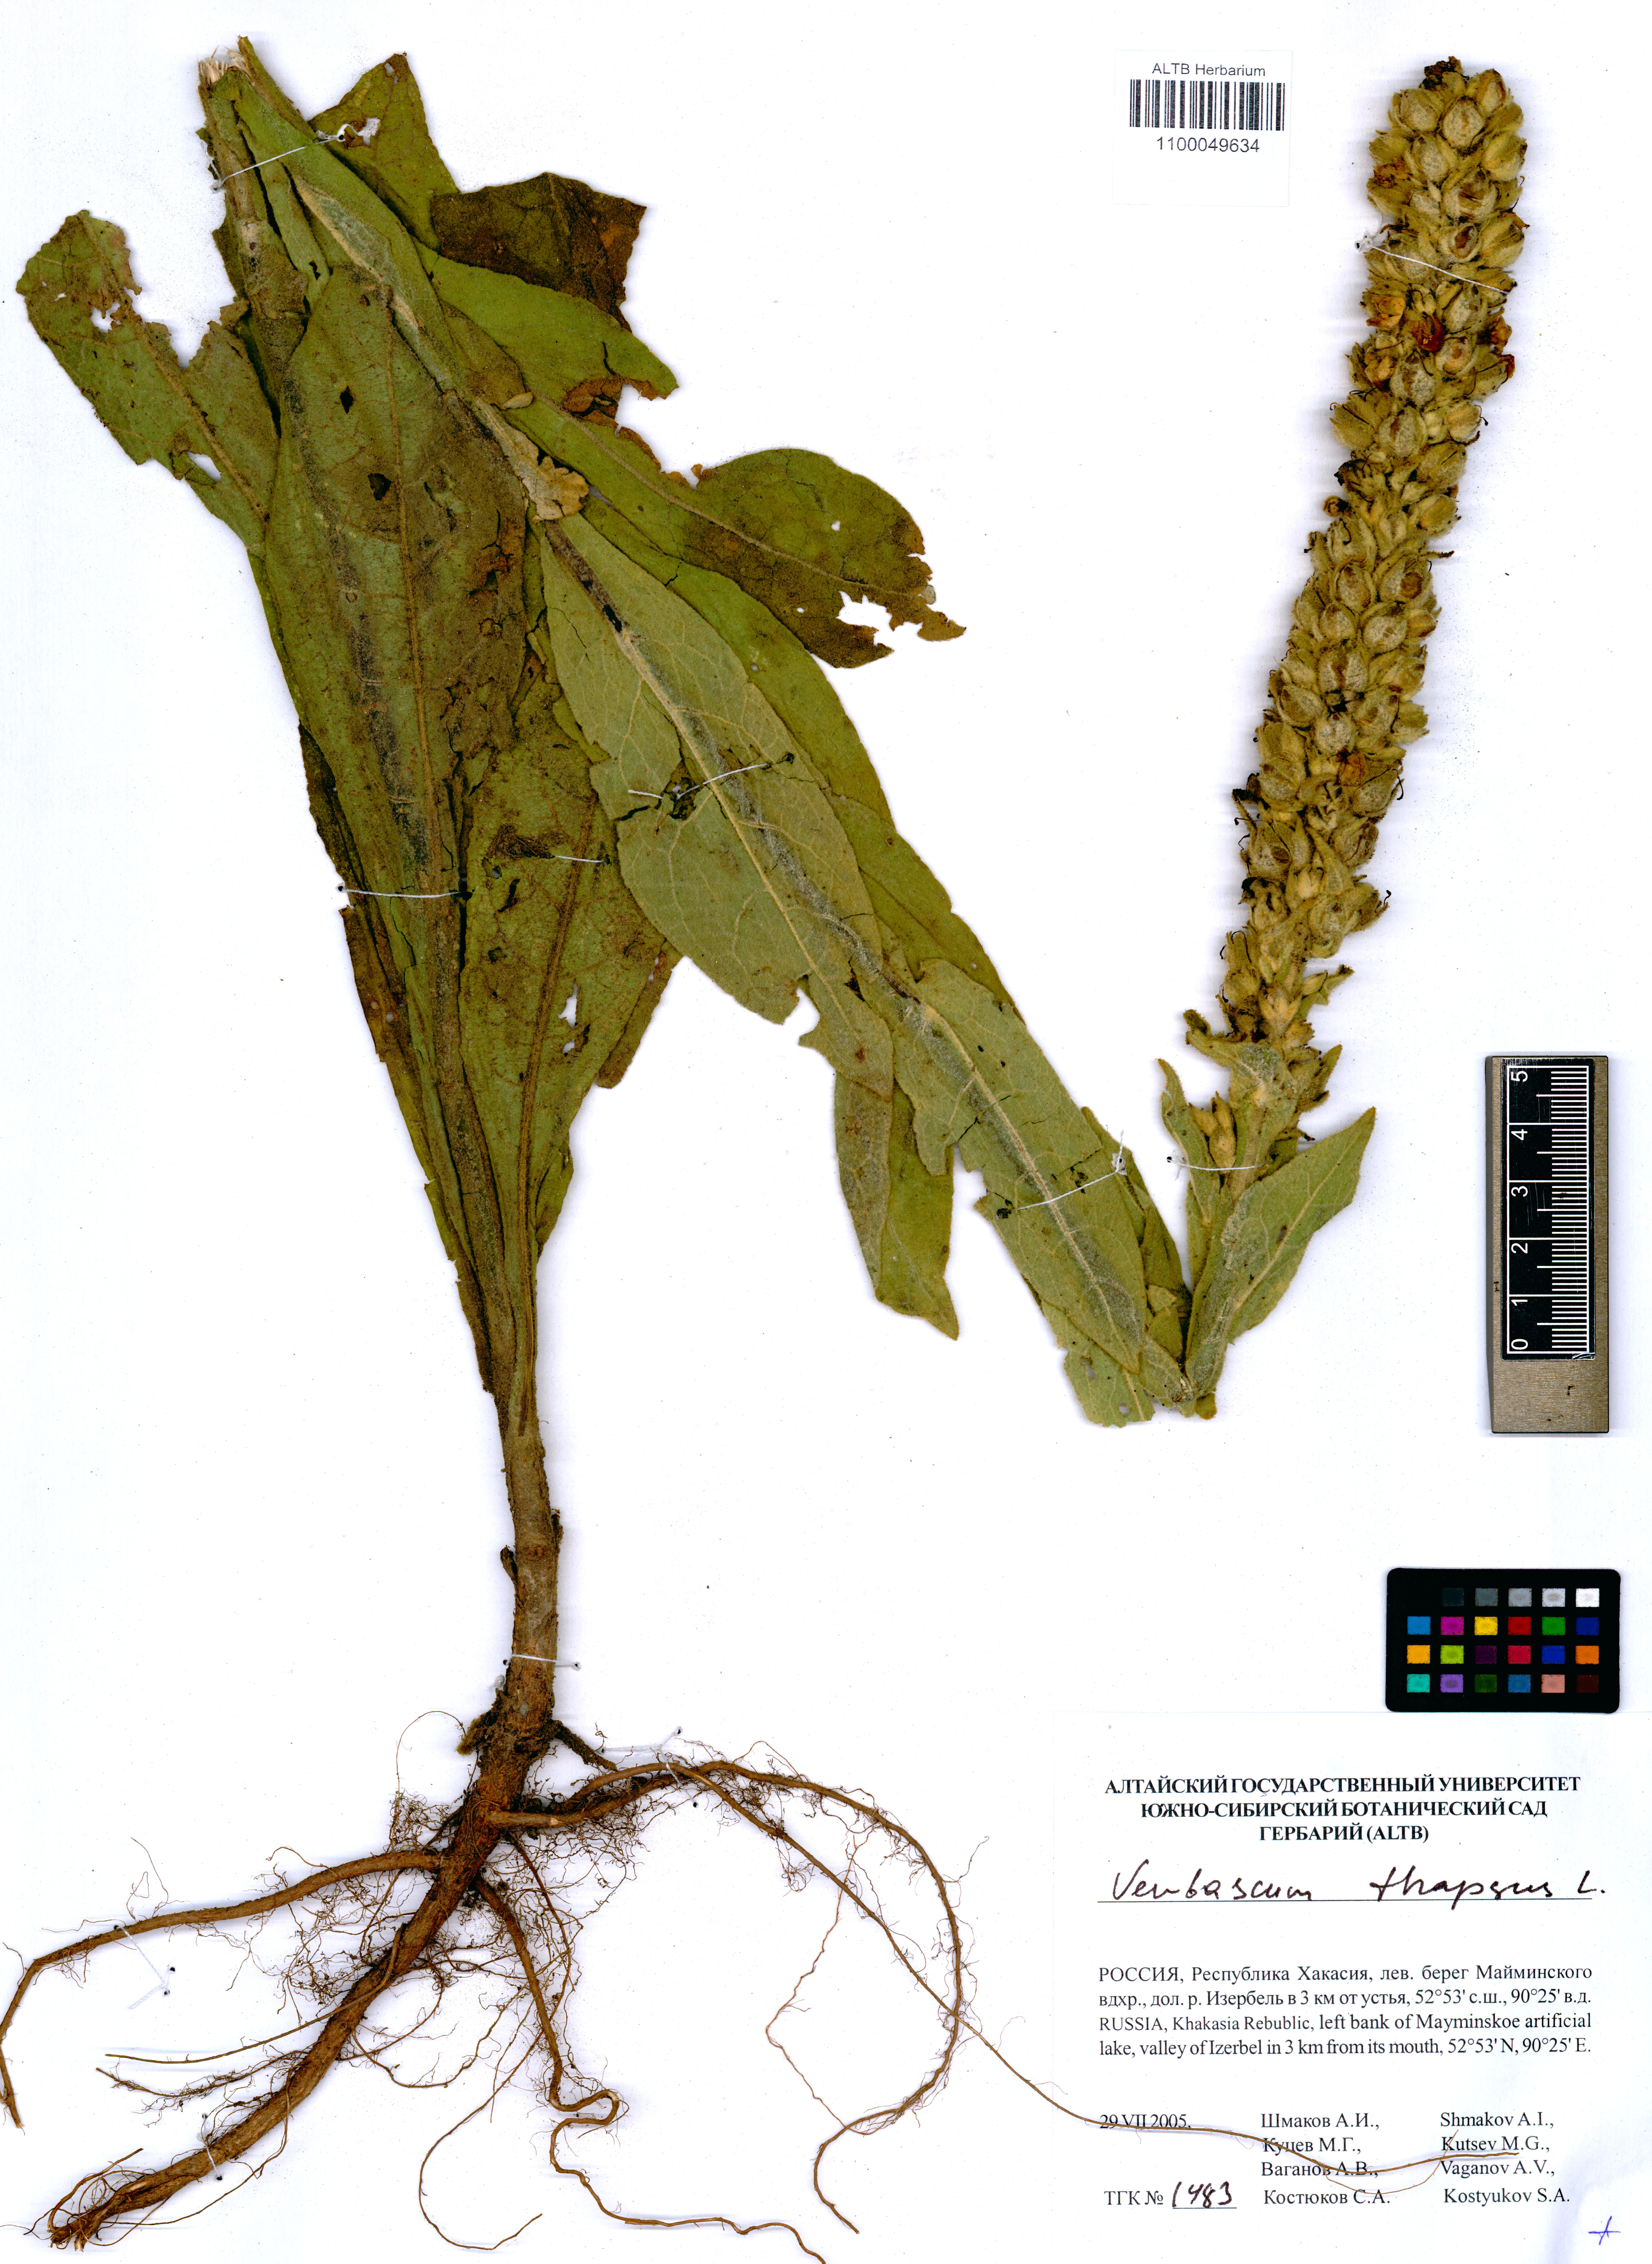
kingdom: Plantae
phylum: Tracheophyta
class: Magnoliopsida
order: Lamiales
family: Scrophulariaceae
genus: Verbascum
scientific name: Verbascum thapsus
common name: Common mullein
